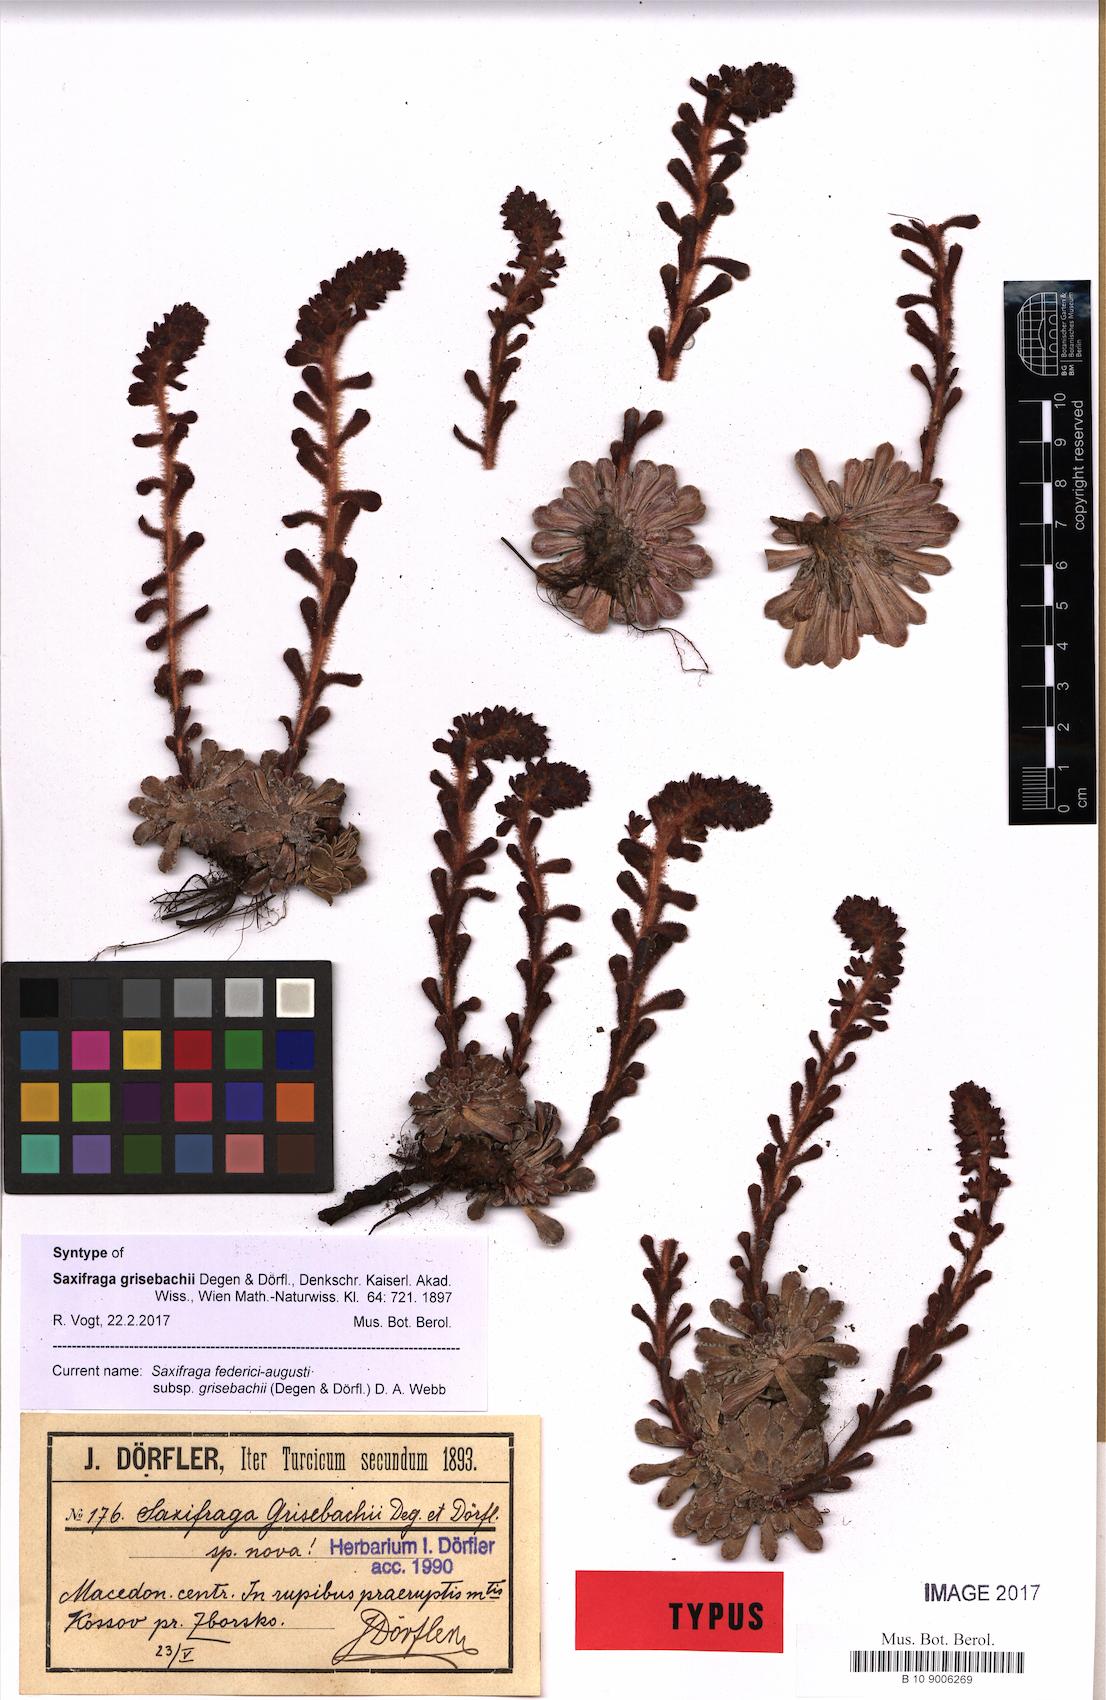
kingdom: Plantae
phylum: Tracheophyta
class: Magnoliopsida
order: Saxifragales
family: Saxifragaceae
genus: Saxifraga
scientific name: Saxifraga federici-augusti
